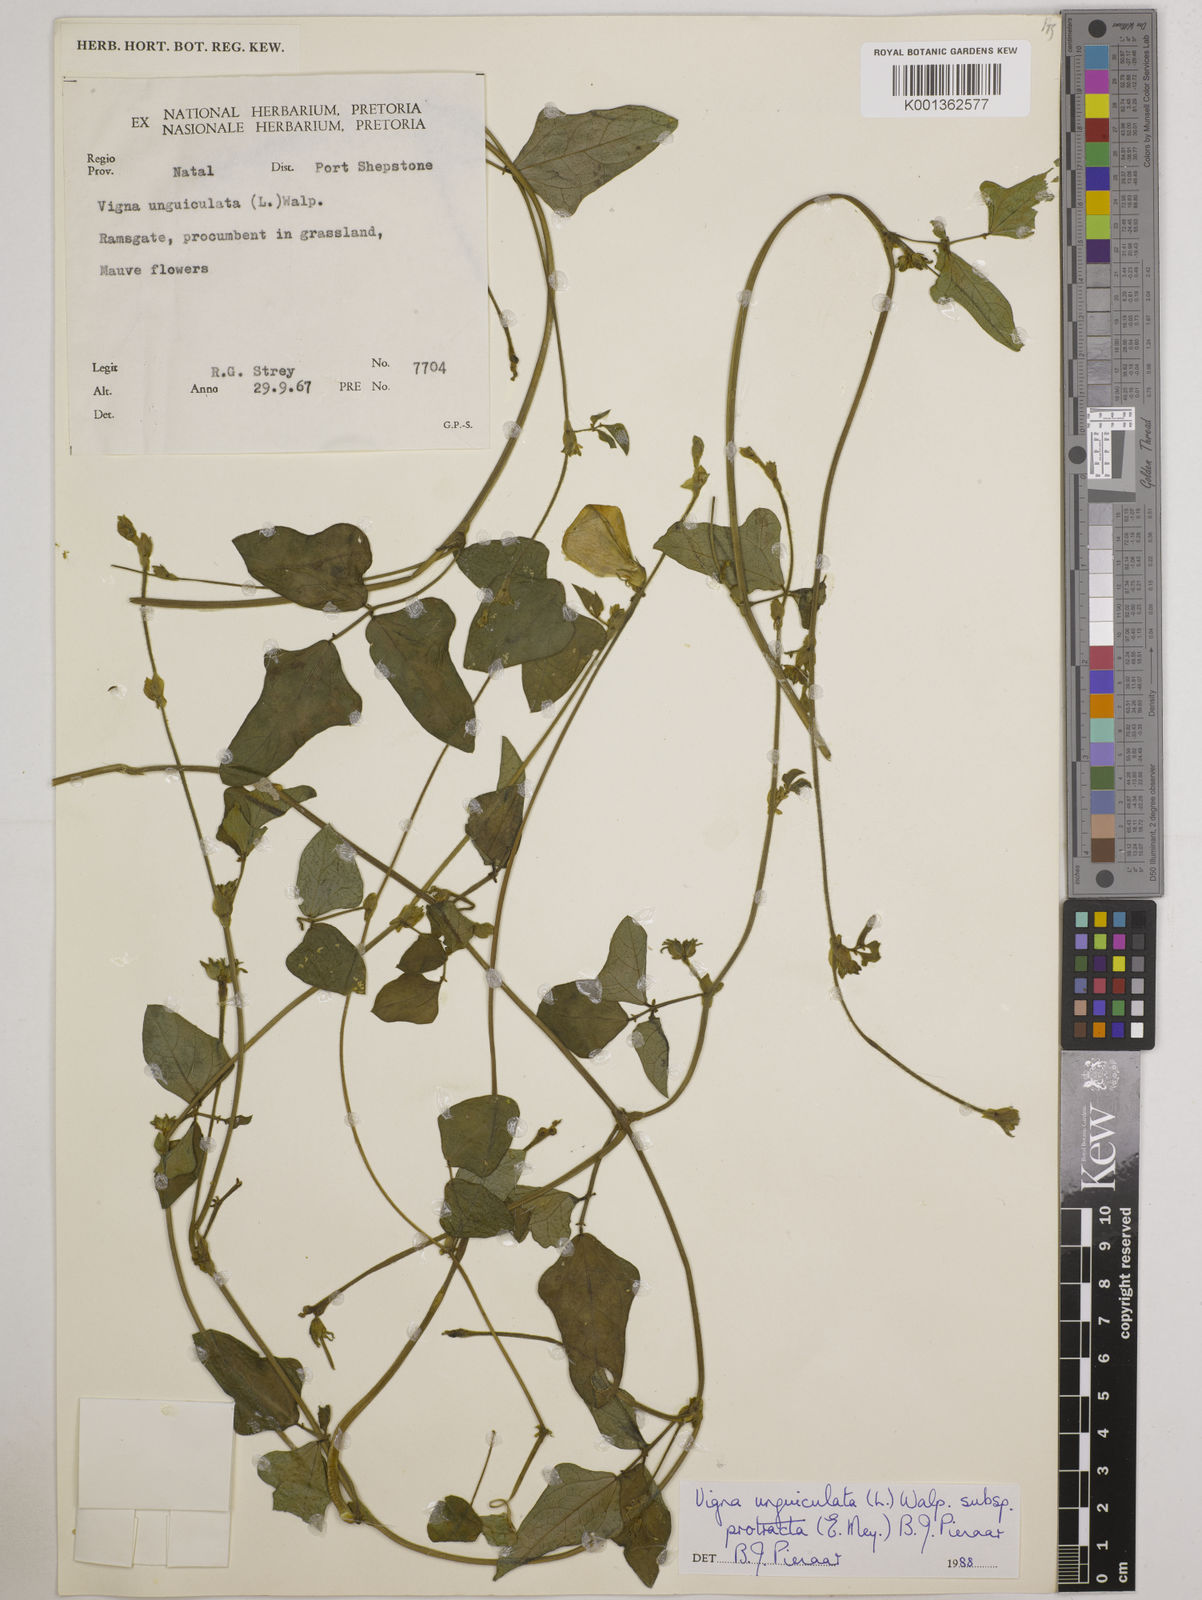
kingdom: Plantae
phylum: Tracheophyta
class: Magnoliopsida
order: Fabales
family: Fabaceae
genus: Vigna
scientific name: Vigna unguiculata
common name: Cowpea
